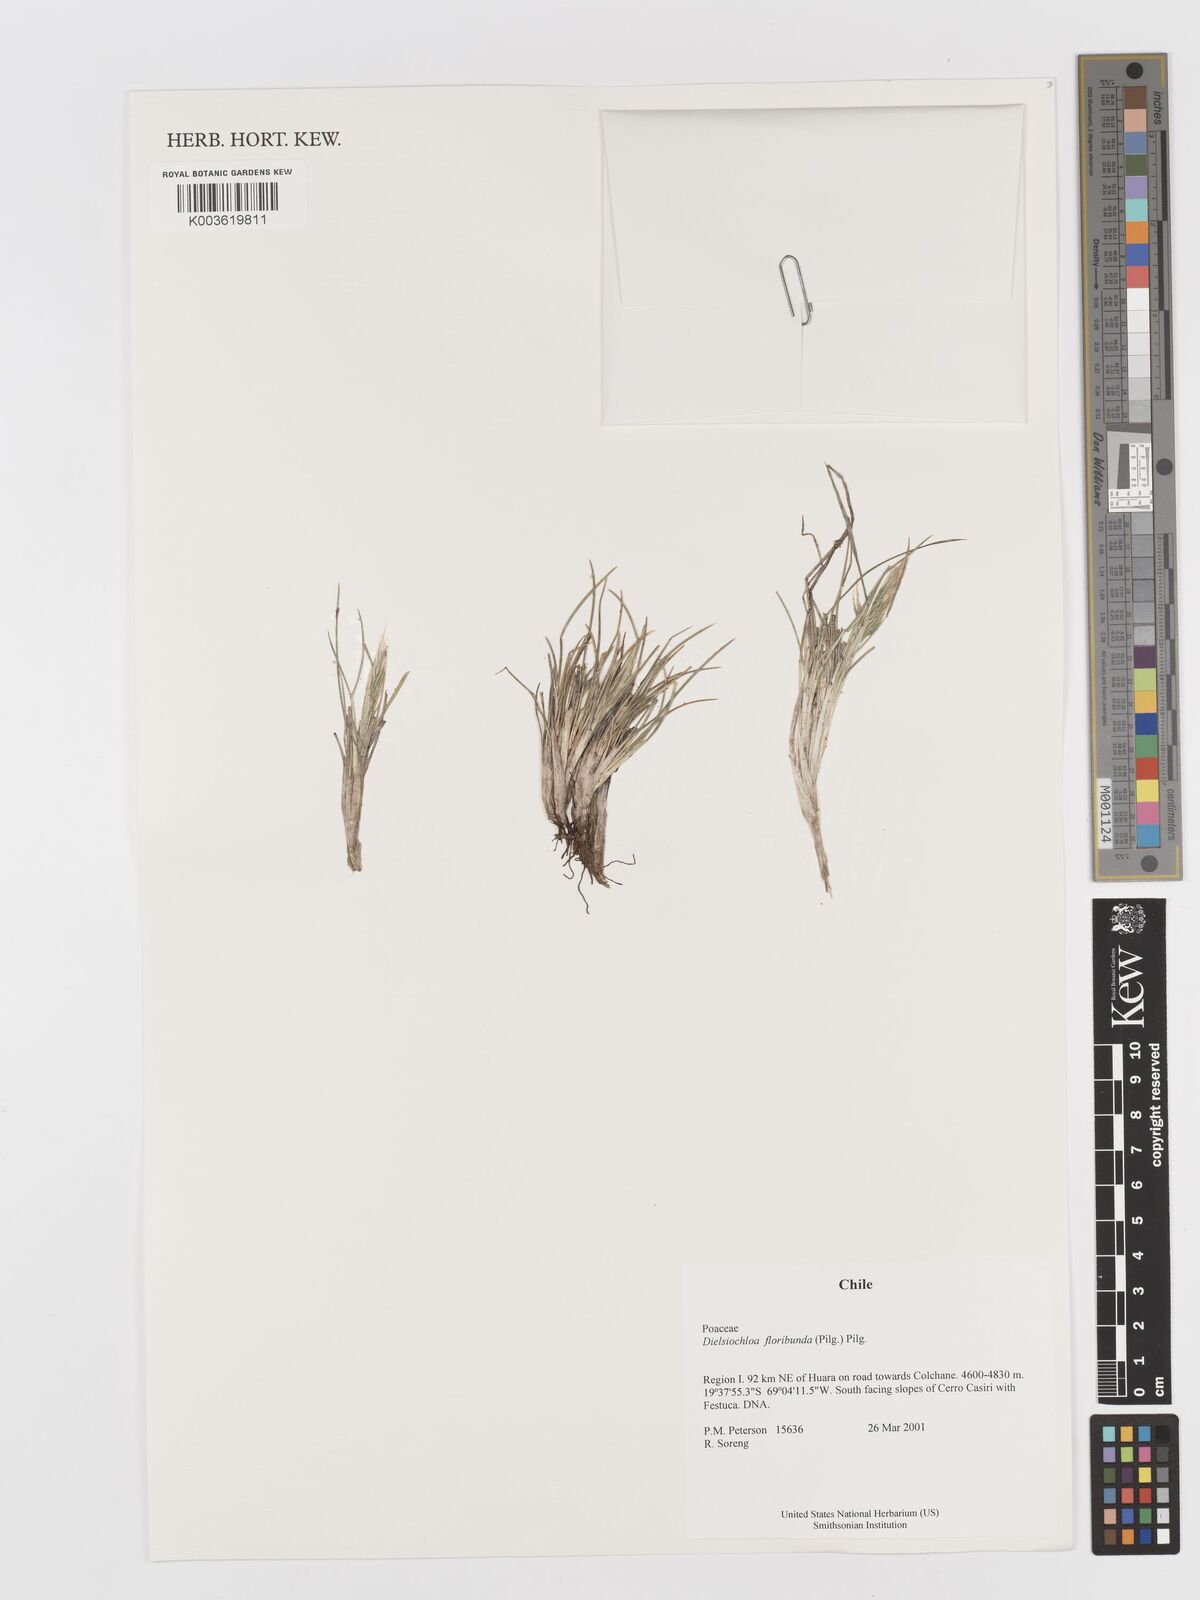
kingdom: Plantae
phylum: Tracheophyta
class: Liliopsida
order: Poales
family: Poaceae
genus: Festuca
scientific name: Festuca floribunda
